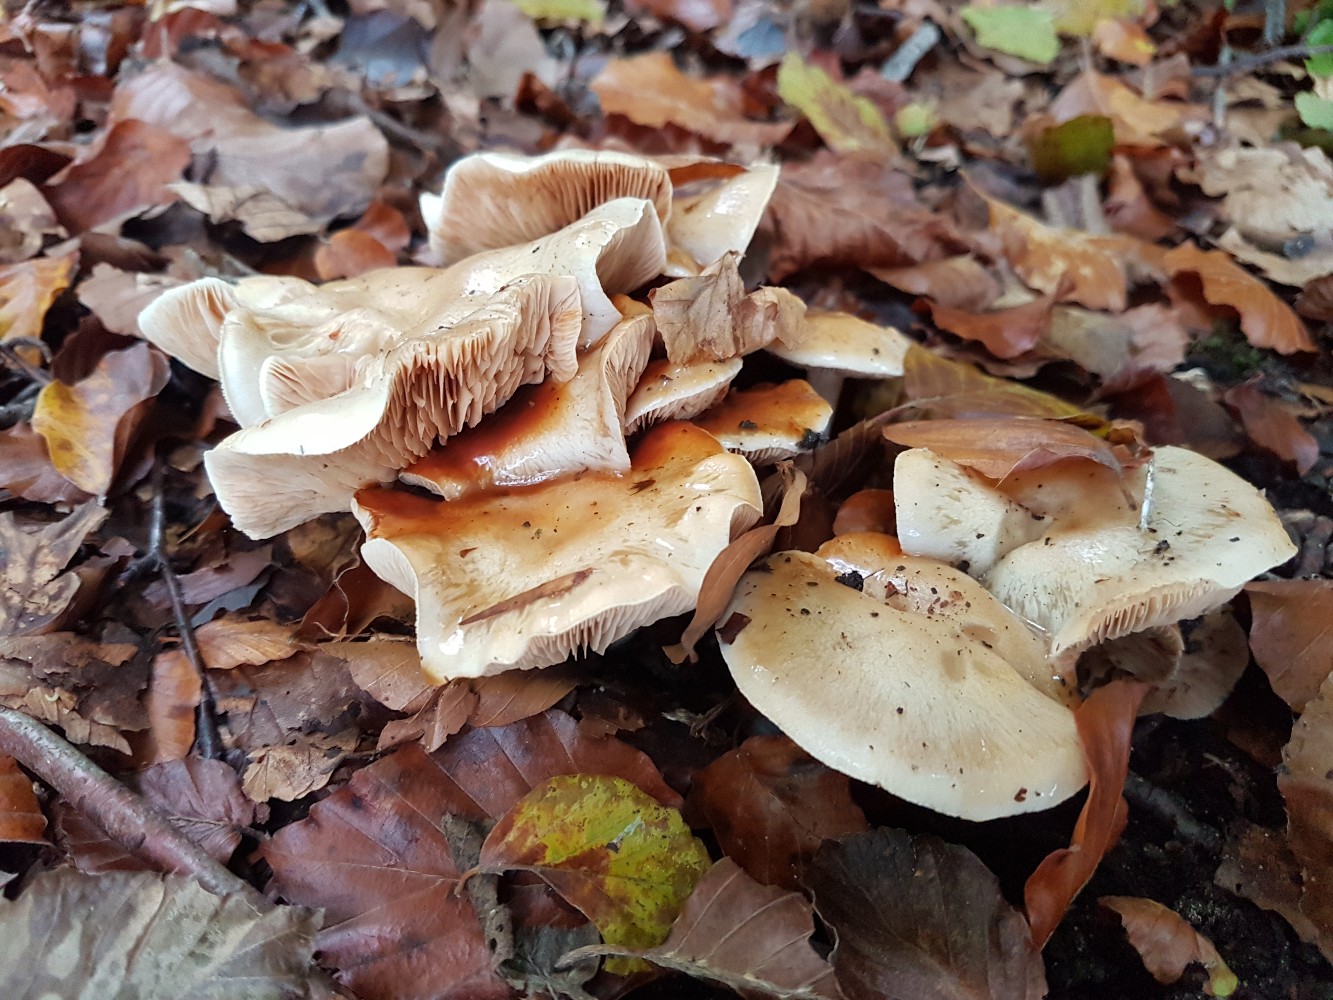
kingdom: Fungi
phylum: Basidiomycota
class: Agaricomycetes
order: Agaricales
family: Cortinariaceae
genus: Thaxterogaster
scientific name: Thaxterogaster barbatus
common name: elfenbens-slørhat
